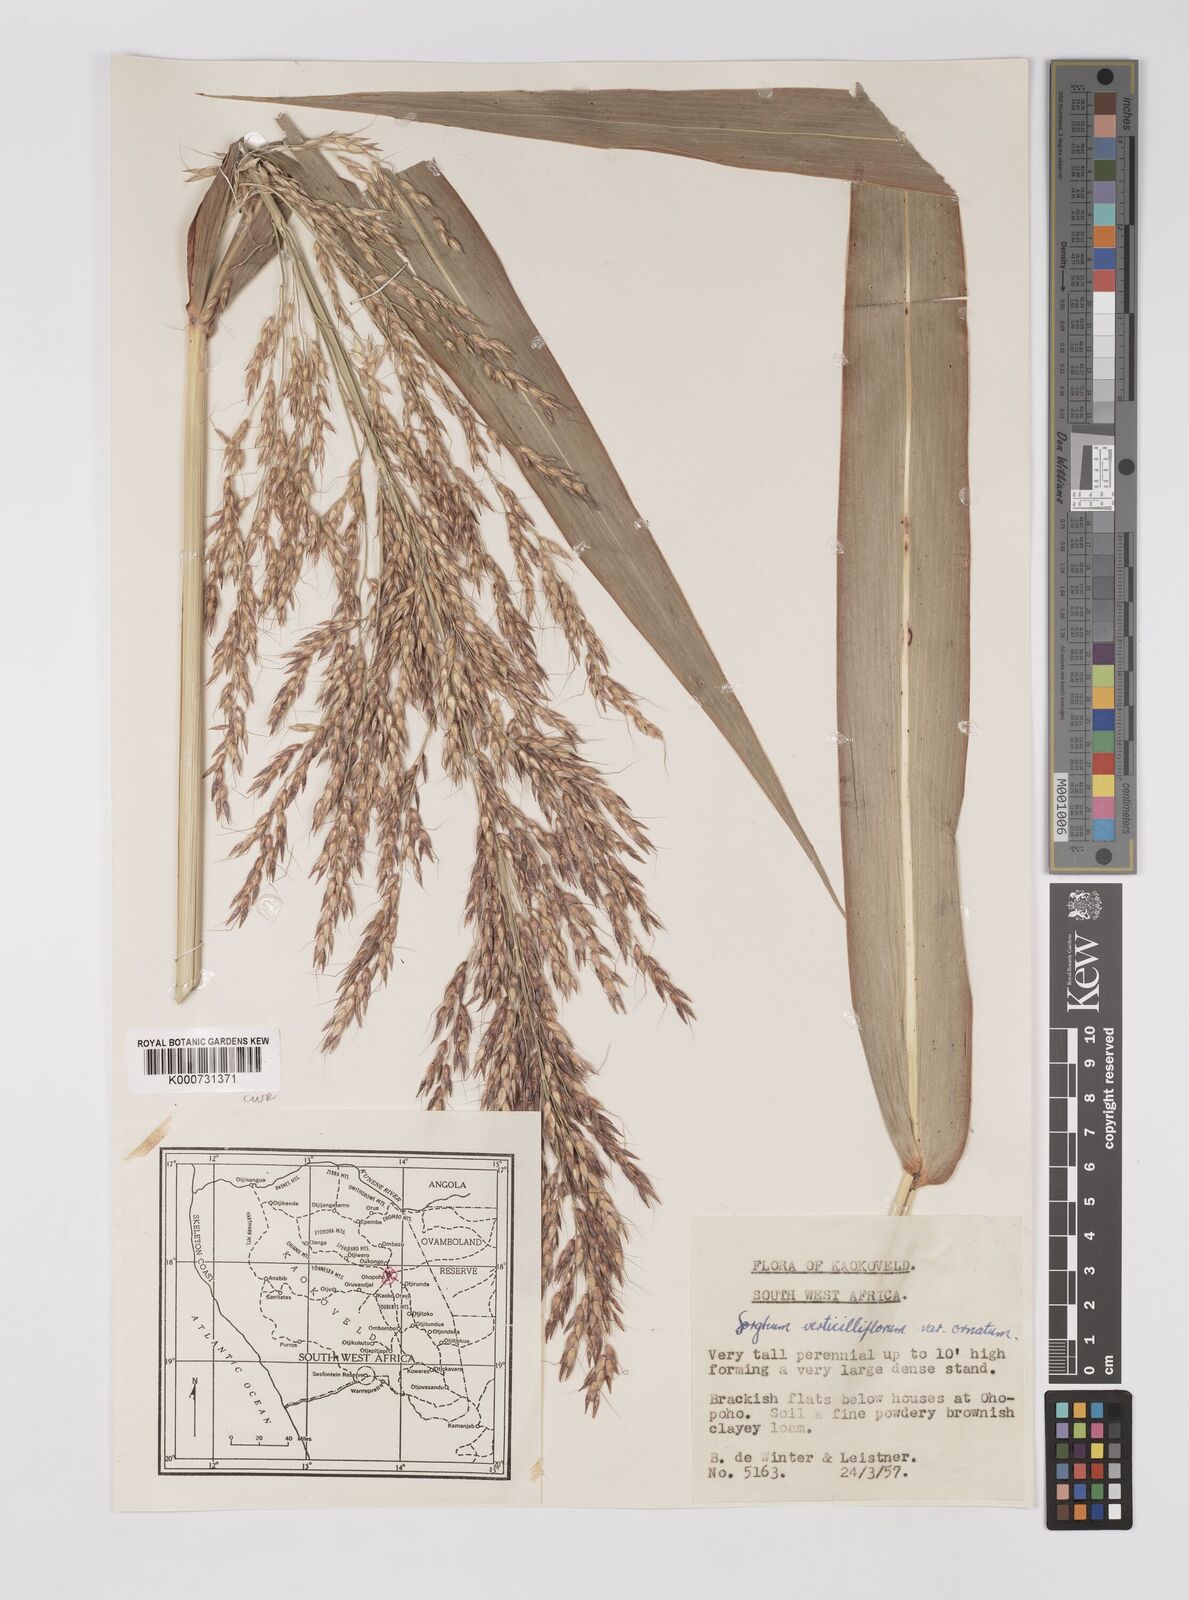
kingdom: Plantae
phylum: Tracheophyta
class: Liliopsida
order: Poales
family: Poaceae
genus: Sorghum
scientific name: Sorghum arundinaceum
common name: Sorghum
